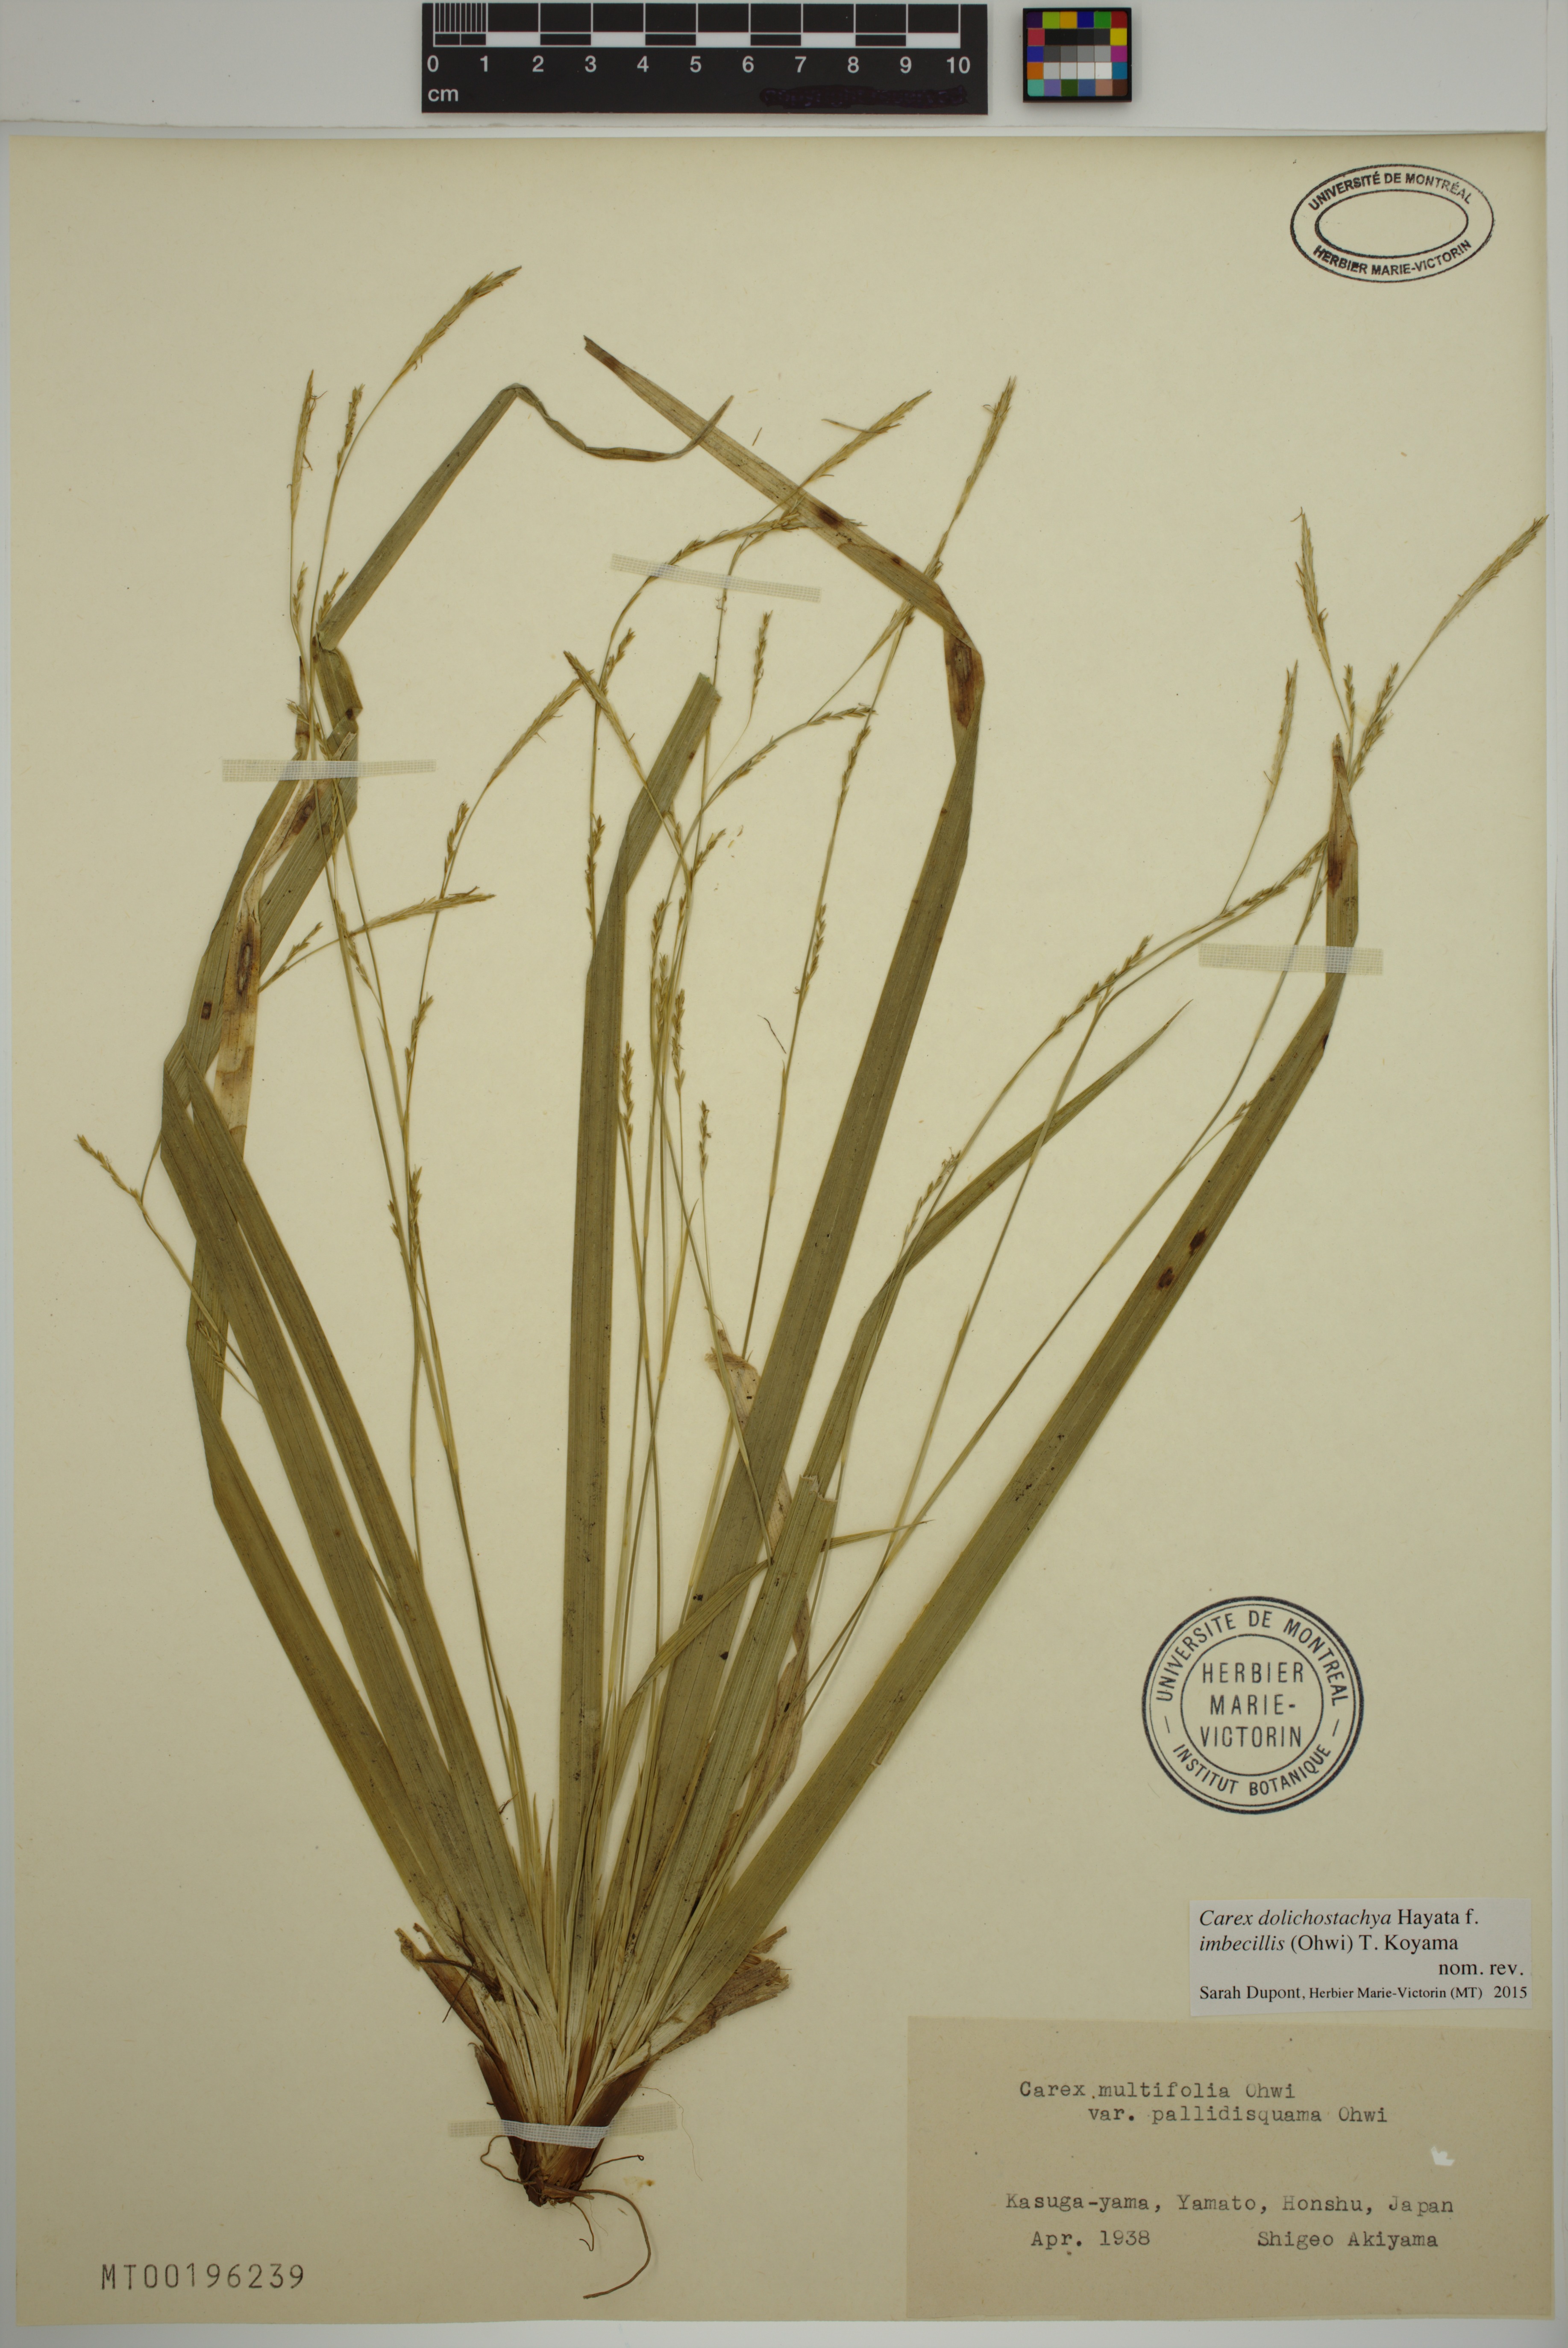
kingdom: Plantae
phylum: Tracheophyta
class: Liliopsida
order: Poales
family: Cyperaceae
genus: Carex
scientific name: Carex imbecillis
